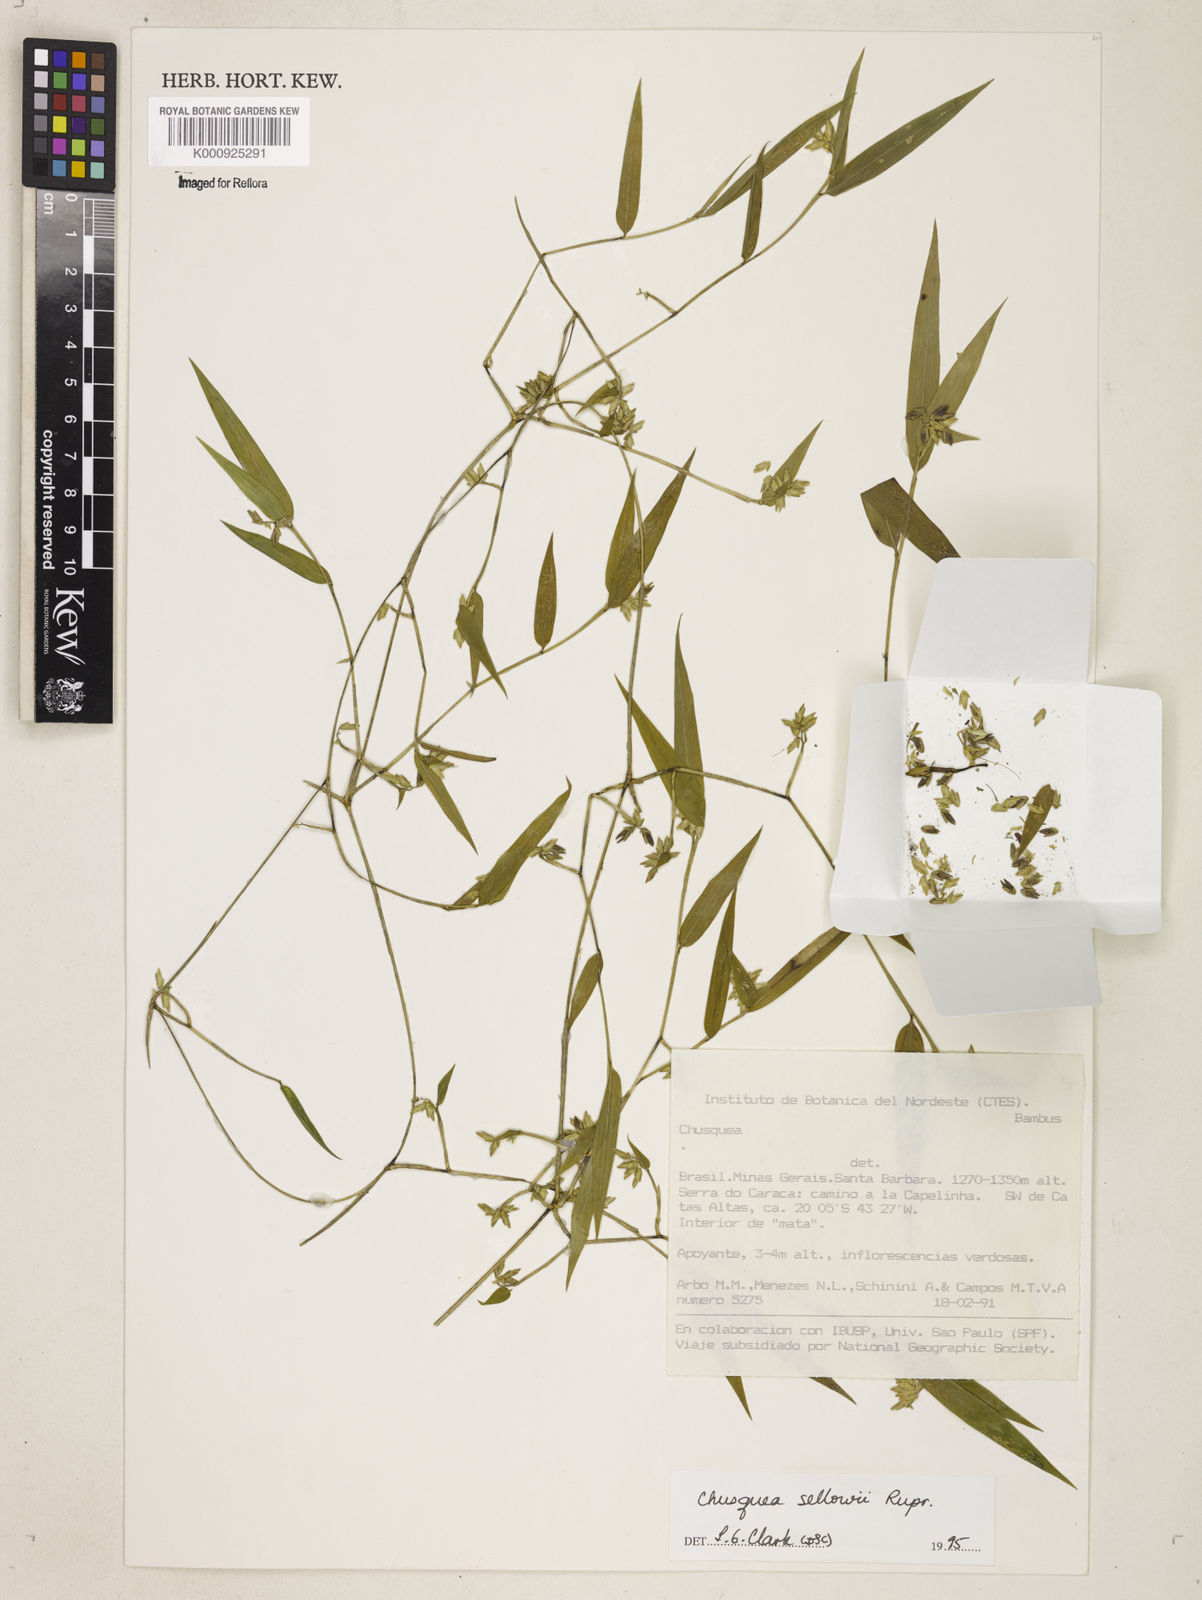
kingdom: Plantae
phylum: Tracheophyta
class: Liliopsida
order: Poales
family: Poaceae
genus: Chusquea
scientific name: Chusquea sellowii
